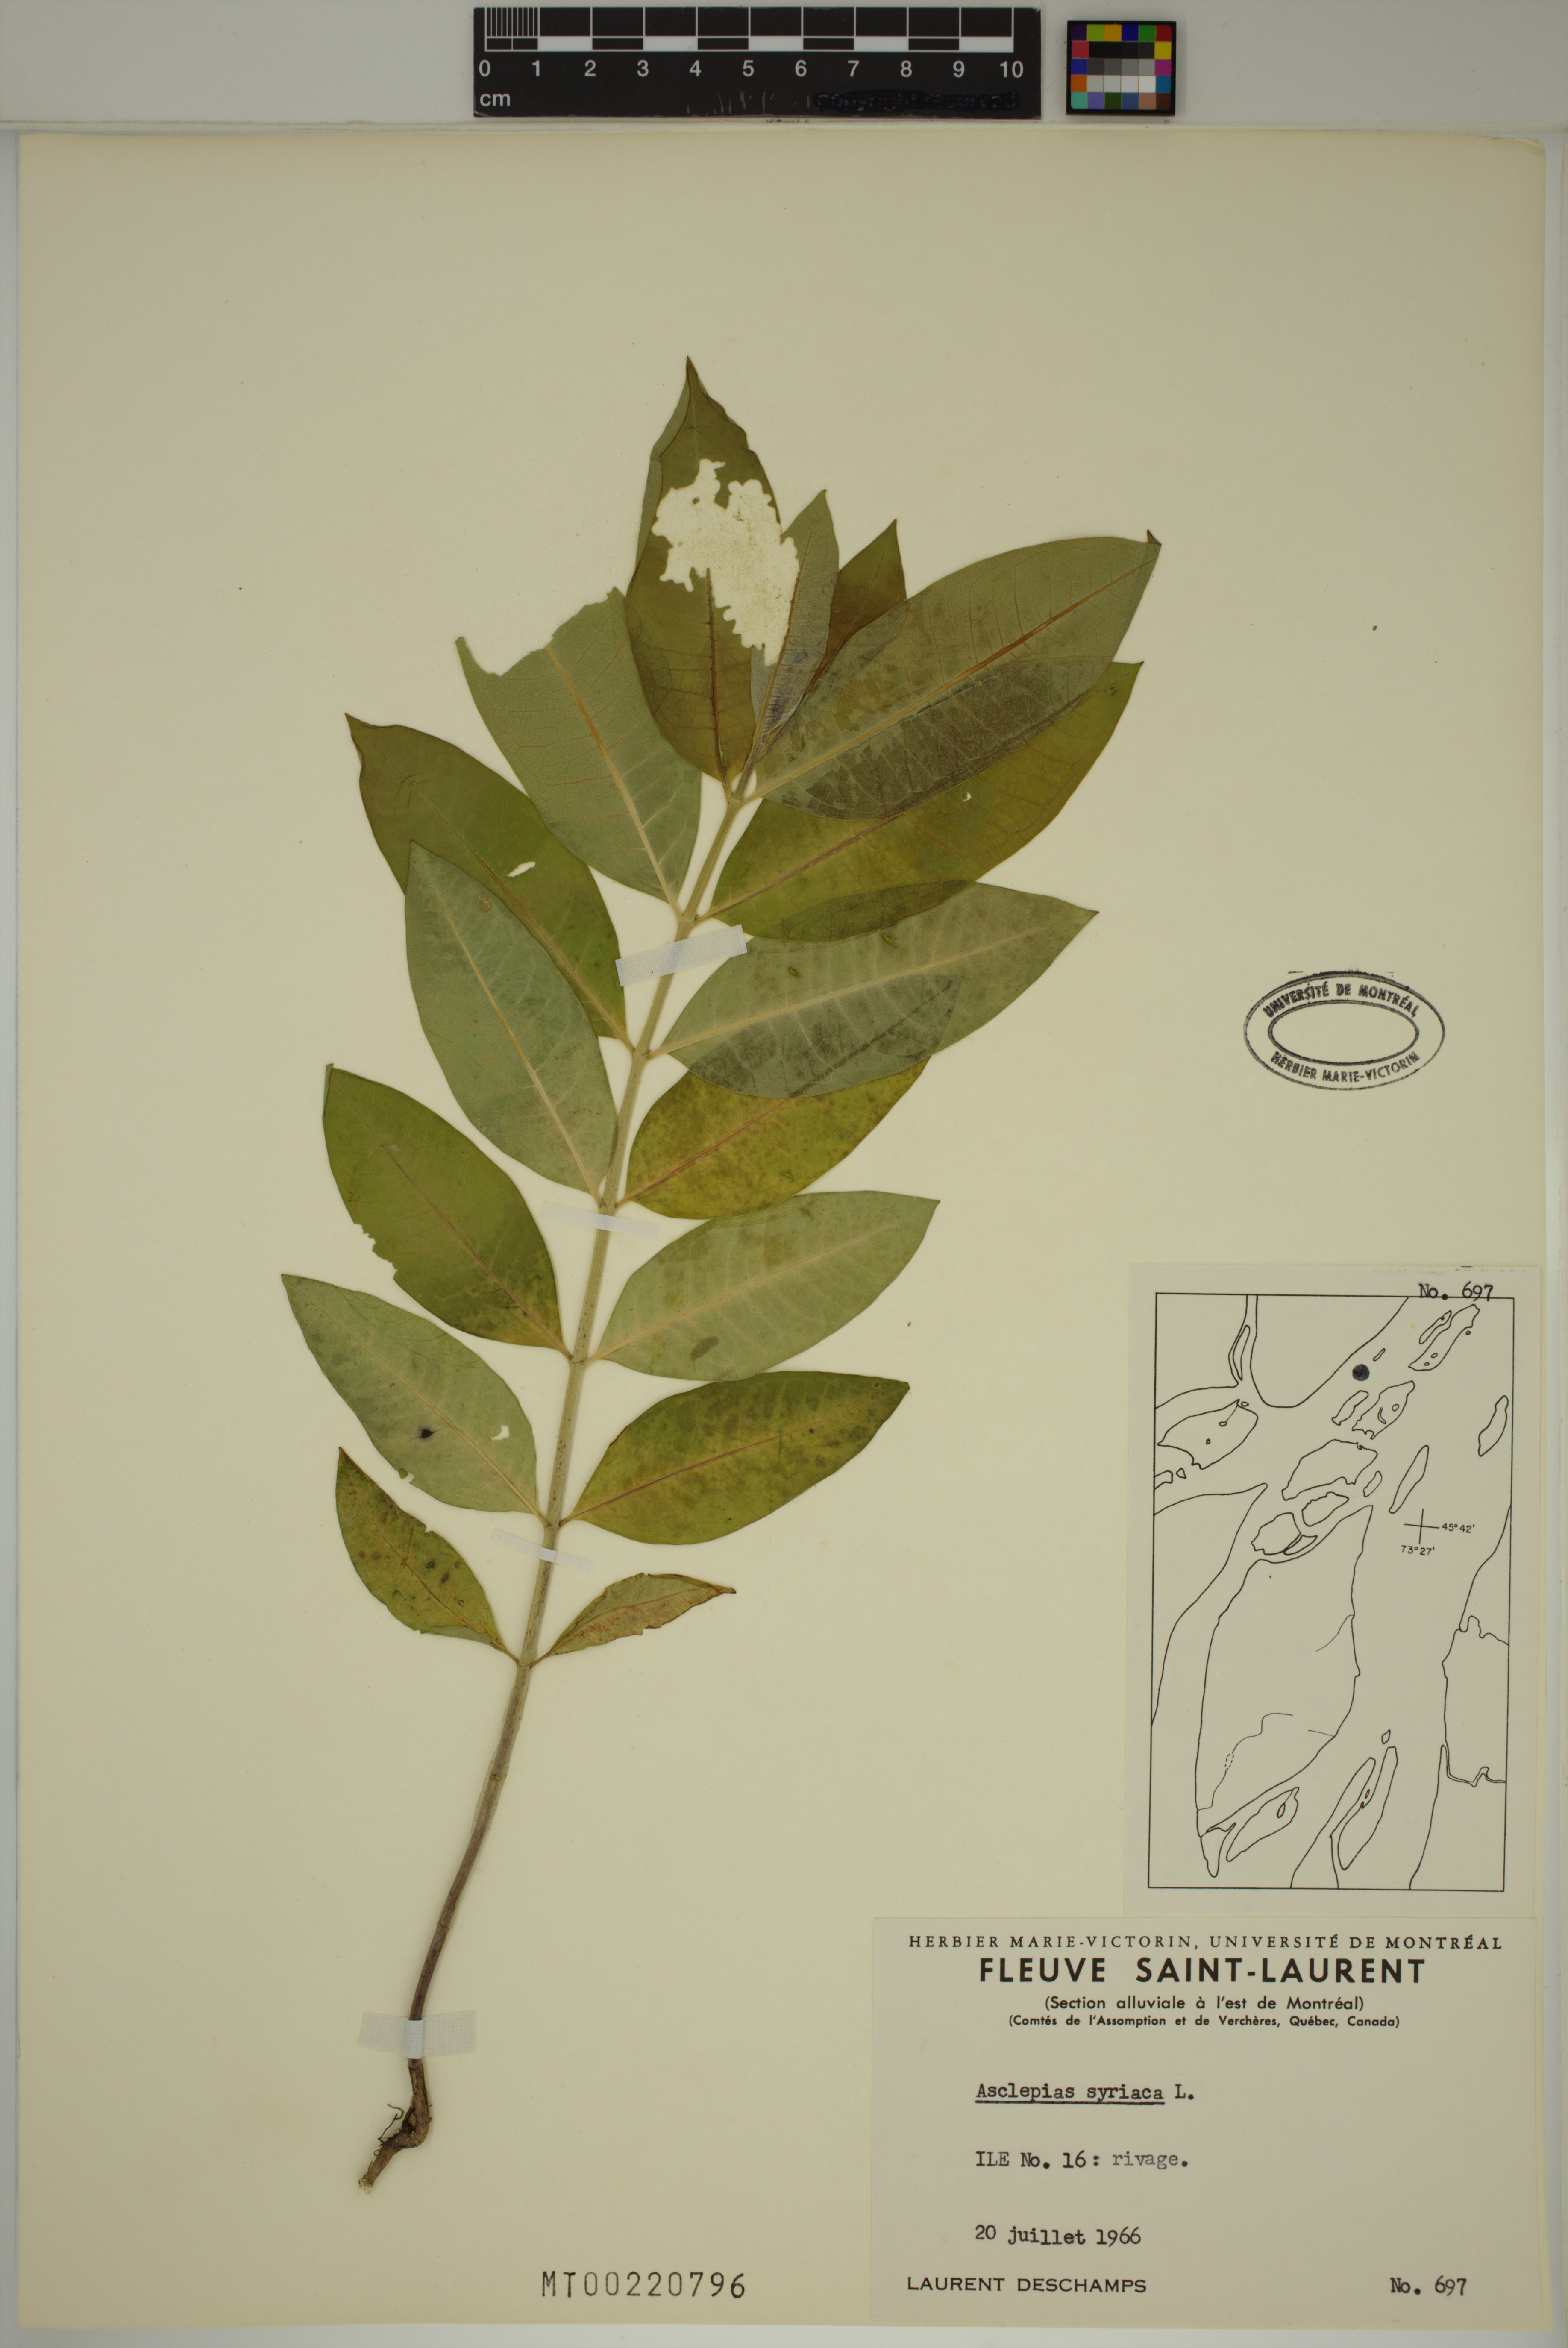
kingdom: Plantae
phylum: Tracheophyta
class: Magnoliopsida
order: Gentianales
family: Apocynaceae
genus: Asclepias
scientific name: Asclepias syriaca
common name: Common milkweed
